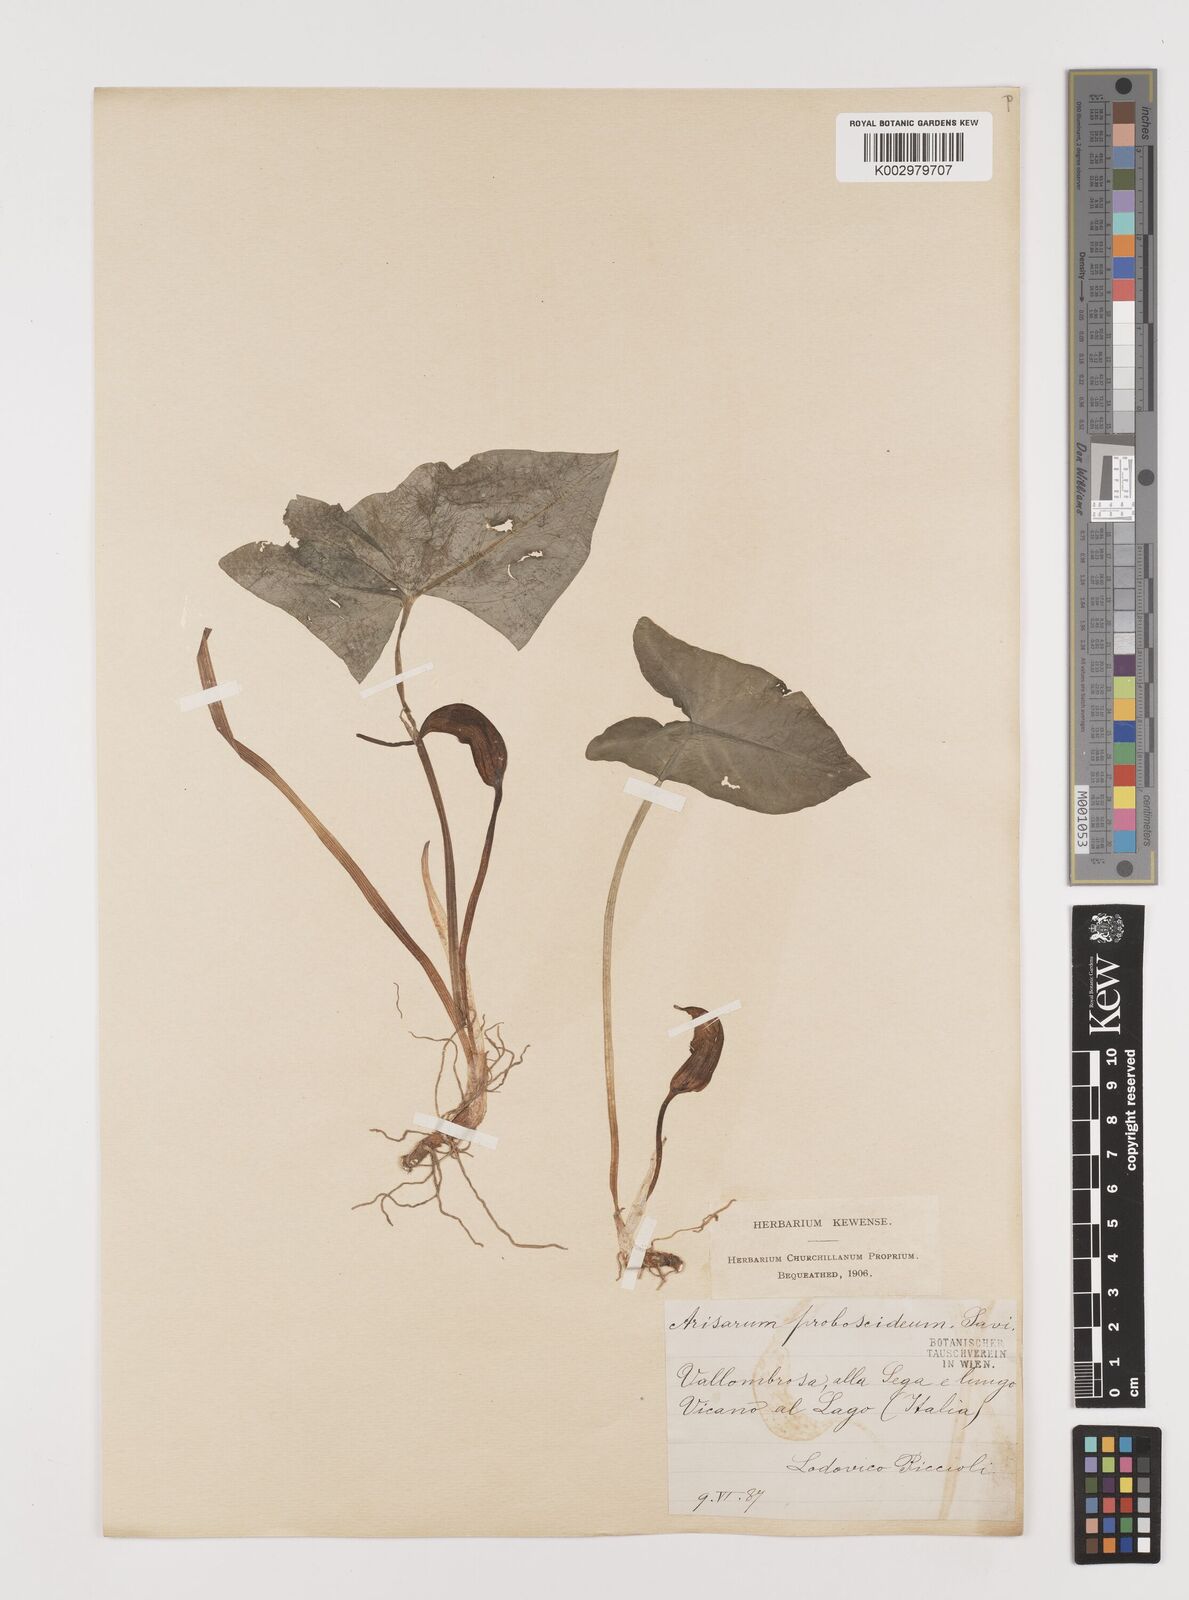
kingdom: Plantae
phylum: Tracheophyta
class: Liliopsida
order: Alismatales
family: Araceae
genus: Arisarum
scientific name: Arisarum proboscideum
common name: Mousetailplant
